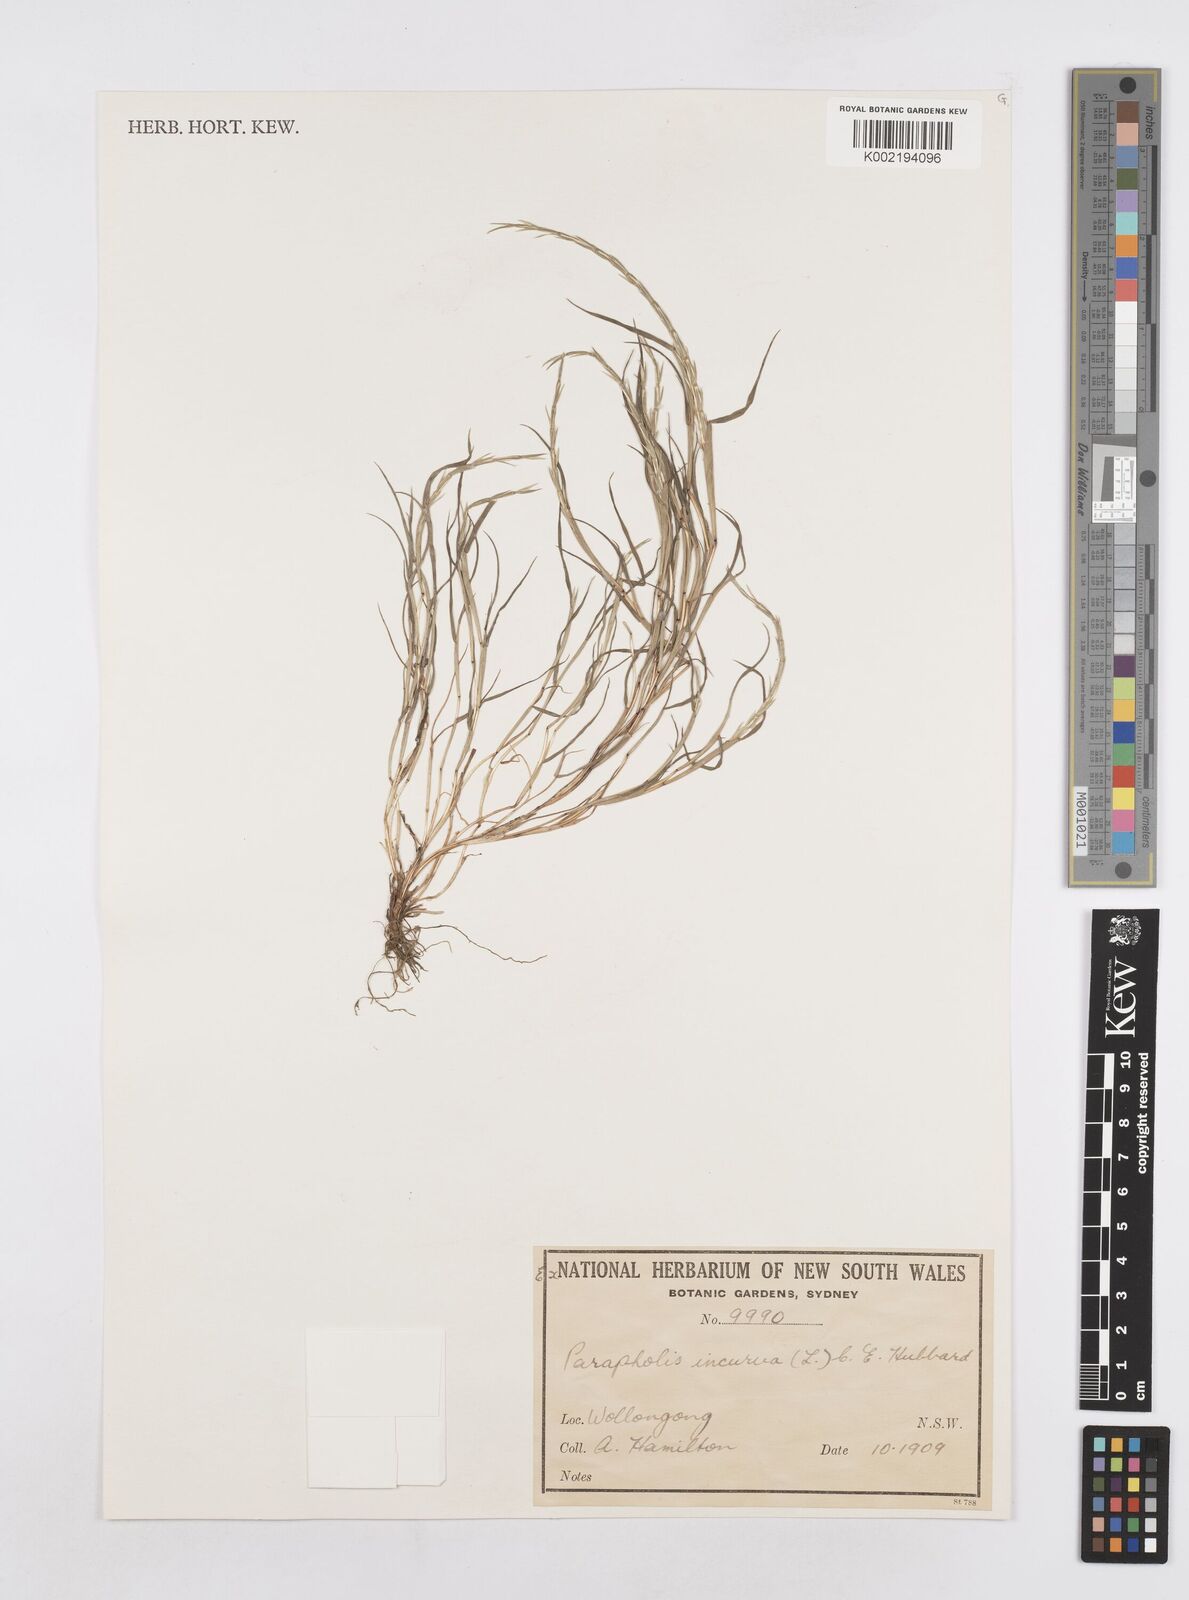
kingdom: Plantae
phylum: Tracheophyta
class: Liliopsida
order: Poales
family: Poaceae
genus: Parapholis
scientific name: Parapholis strigosa
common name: Hard-grass
